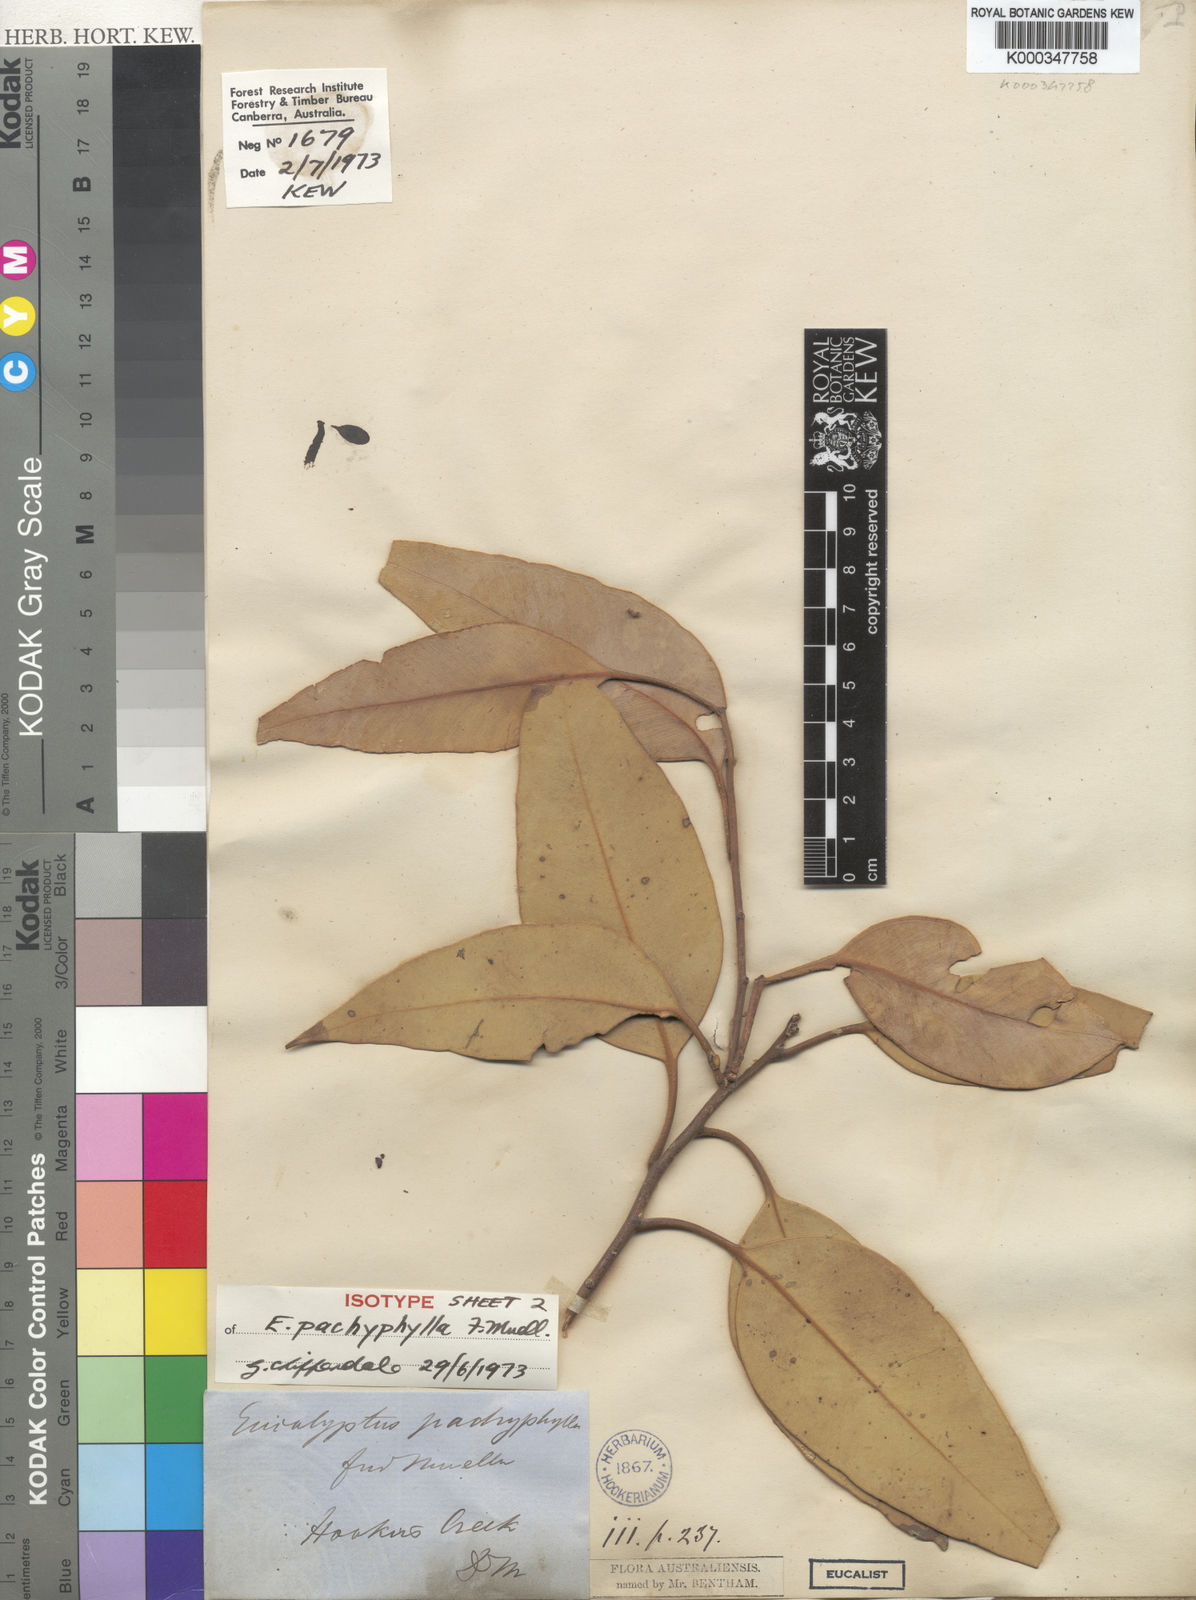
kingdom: Plantae
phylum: Tracheophyta
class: Magnoliopsida
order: Myrtales
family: Myrtaceae
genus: Eucalyptus
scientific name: Eucalyptus pachyphylla
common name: Thick-leaf mallee
